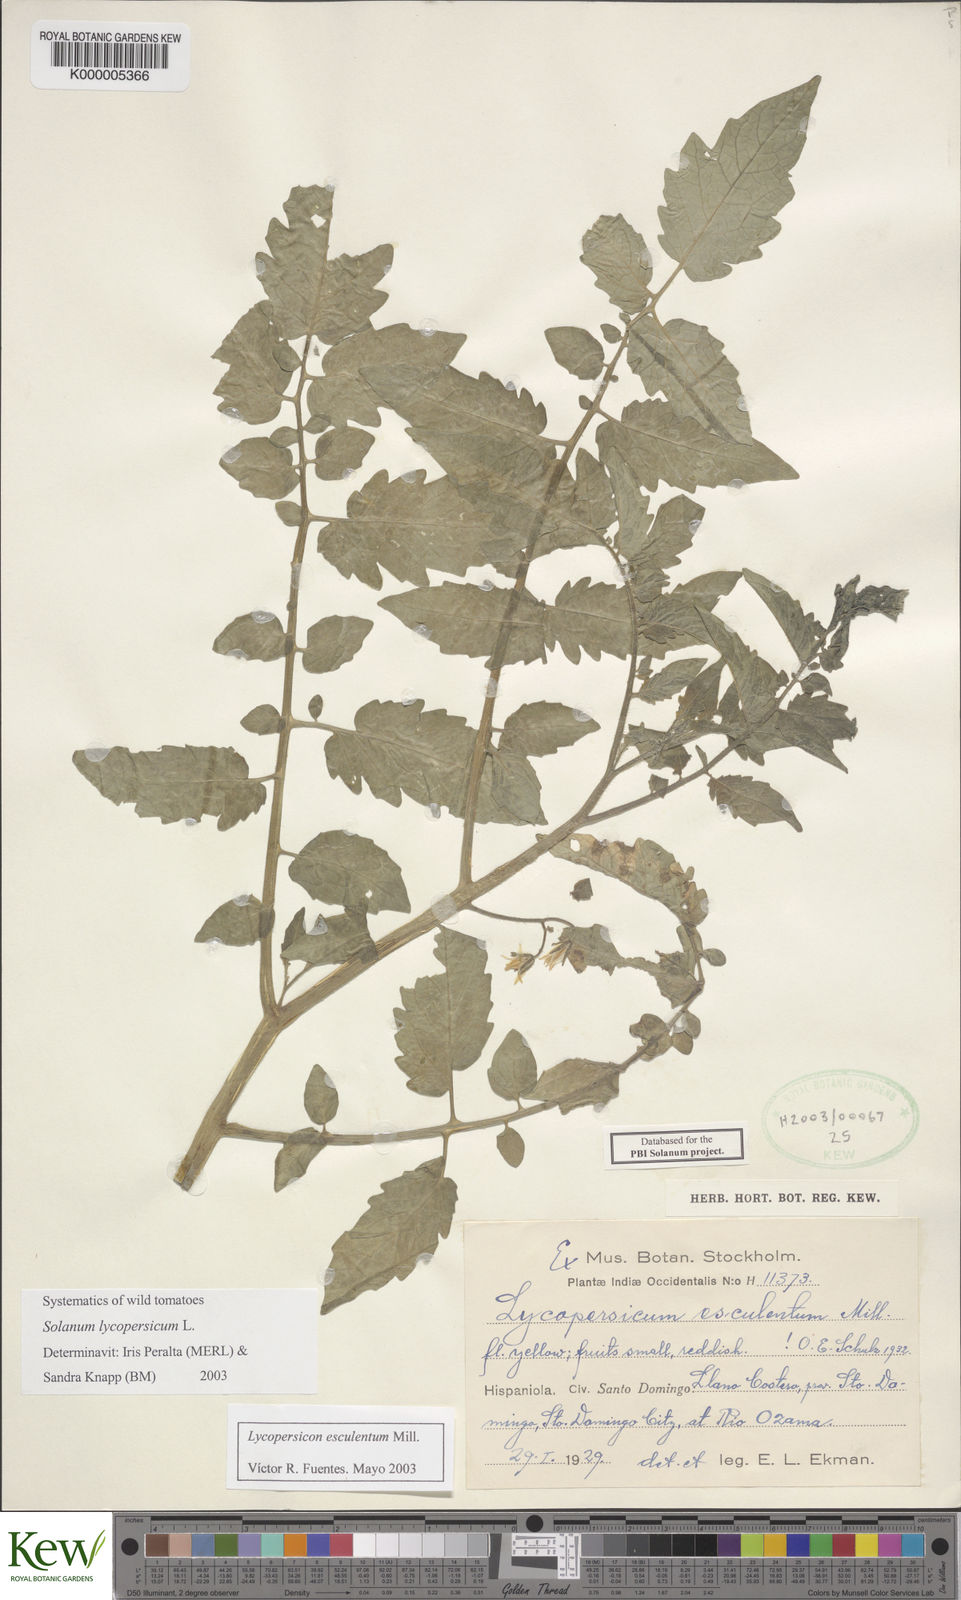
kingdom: Plantae
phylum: Tracheophyta
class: Magnoliopsida
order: Solanales
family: Solanaceae
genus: Solanum
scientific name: Solanum lycopersicum
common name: Garden tomato
